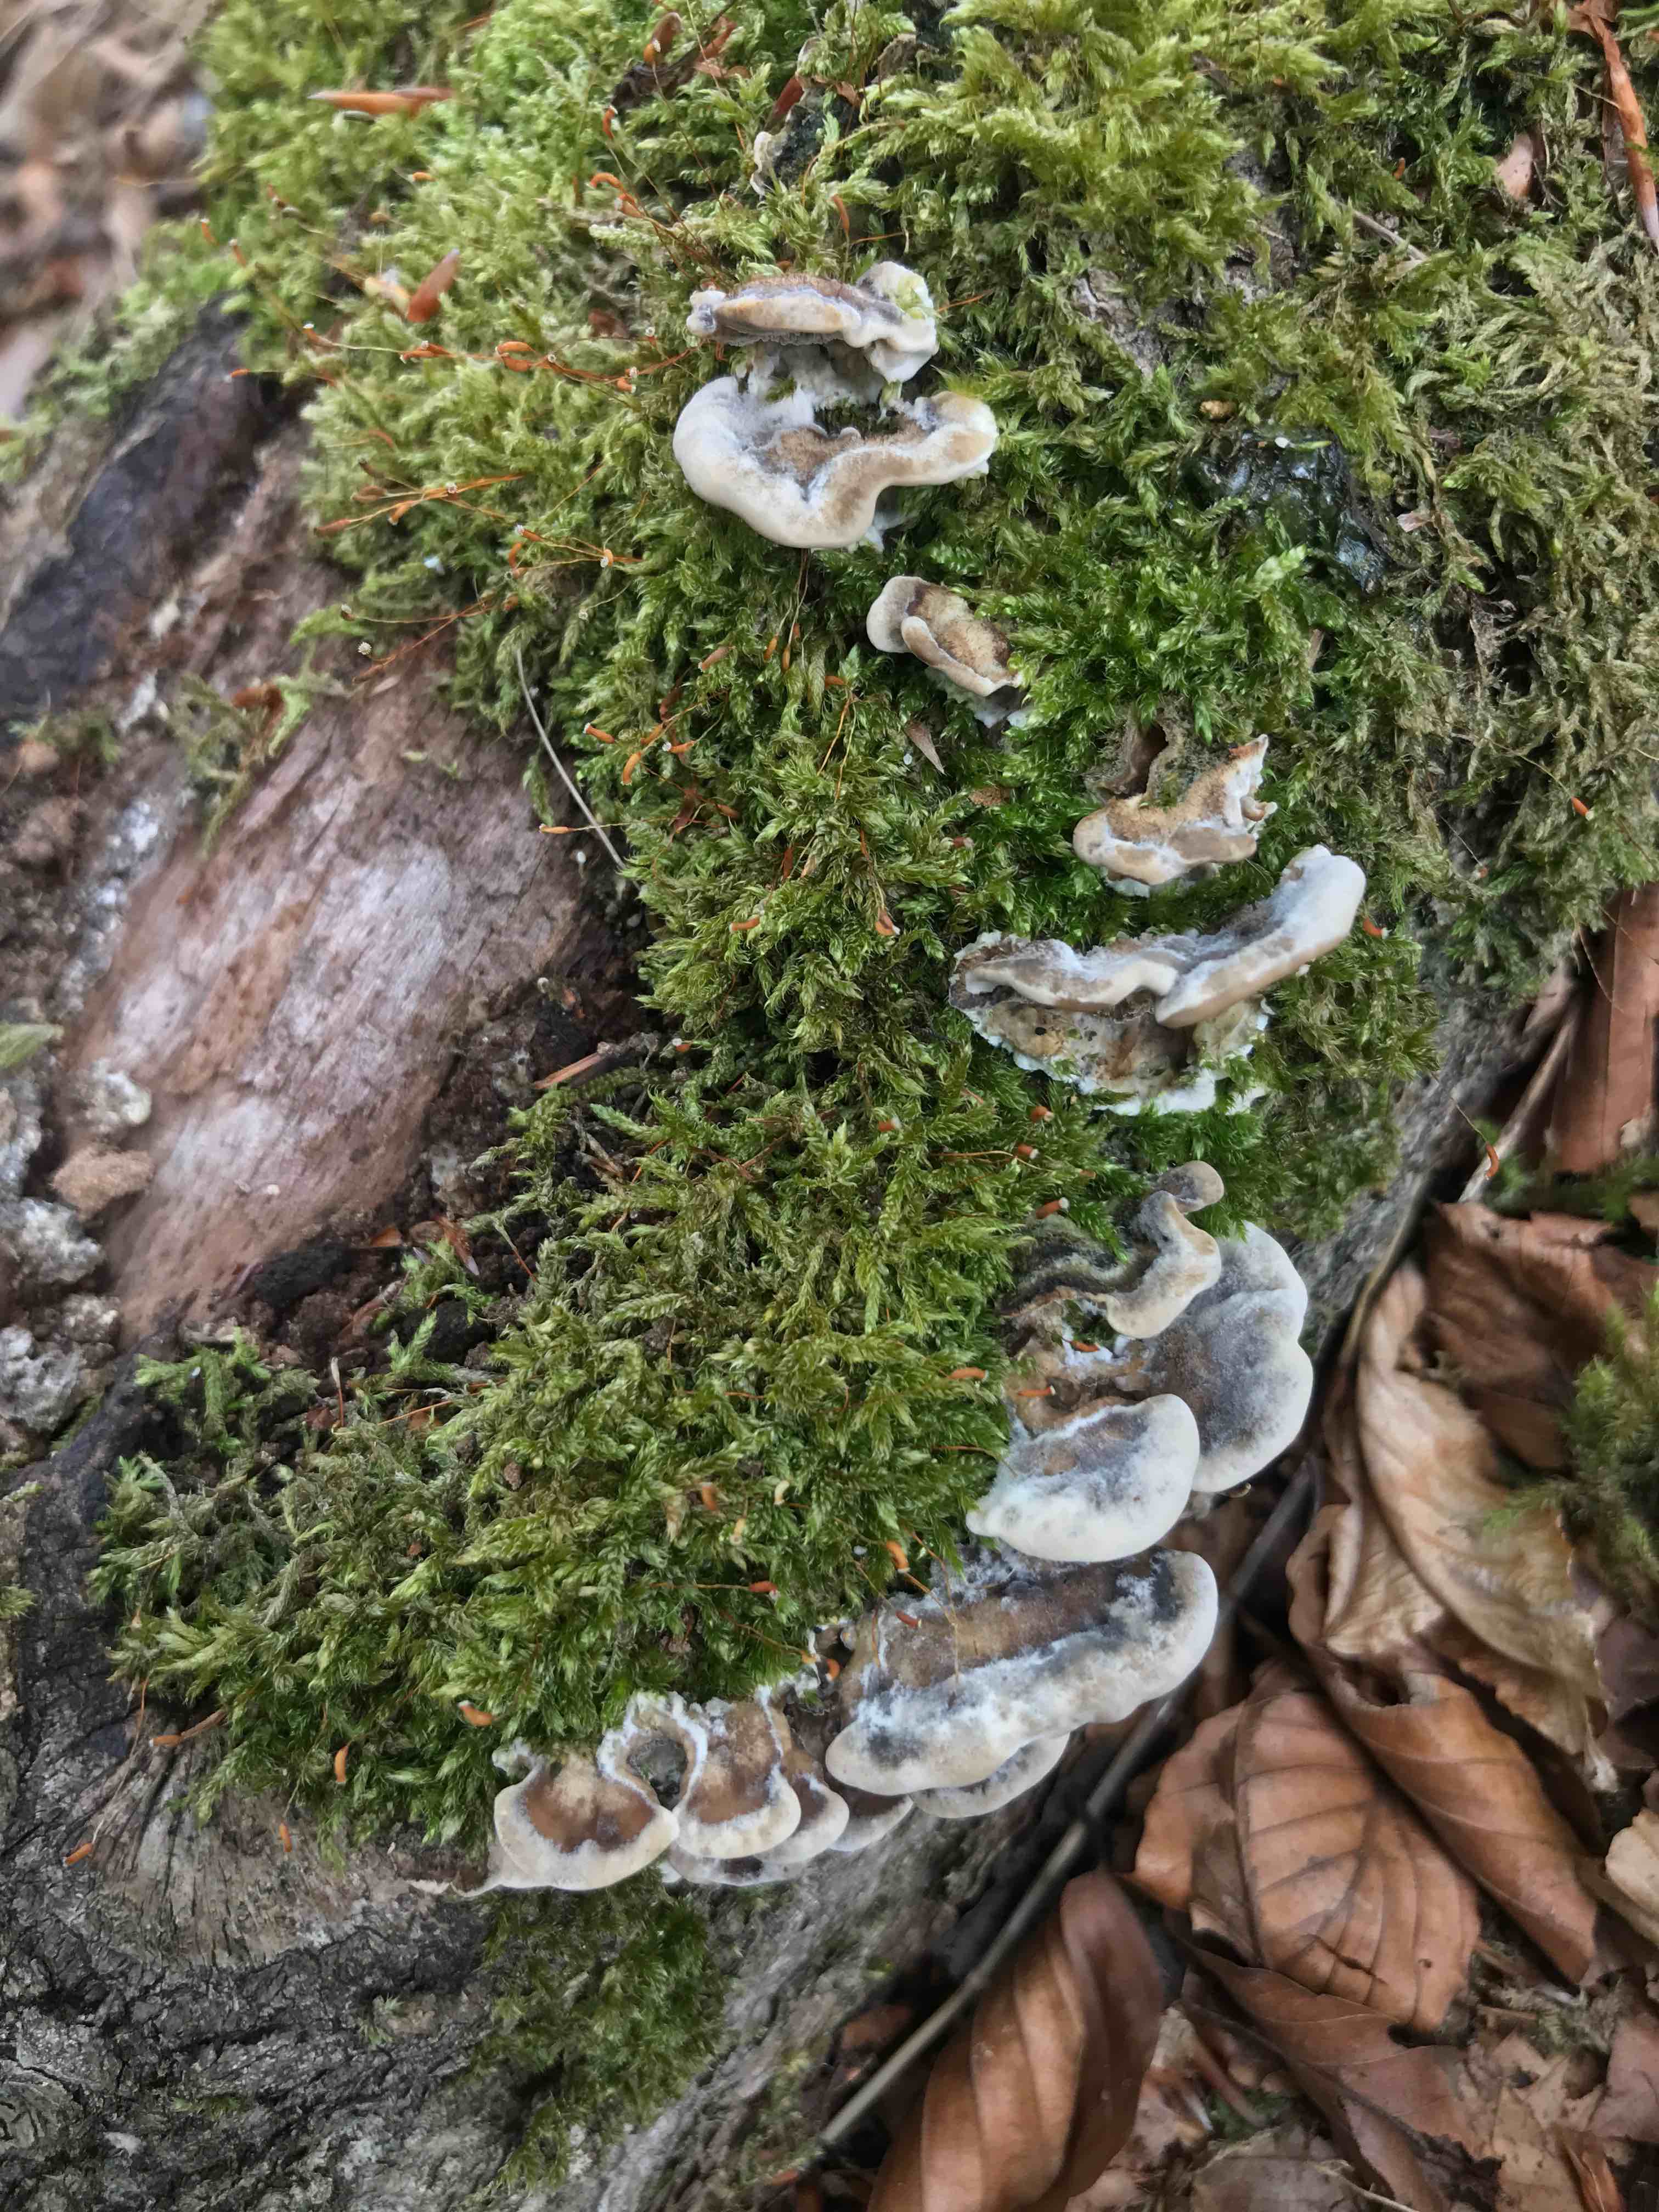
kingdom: Fungi
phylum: Basidiomycota
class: Agaricomycetes
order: Polyporales
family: Phanerochaetaceae
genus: Bjerkandera
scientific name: Bjerkandera adusta
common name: sveden sodporesvamp
